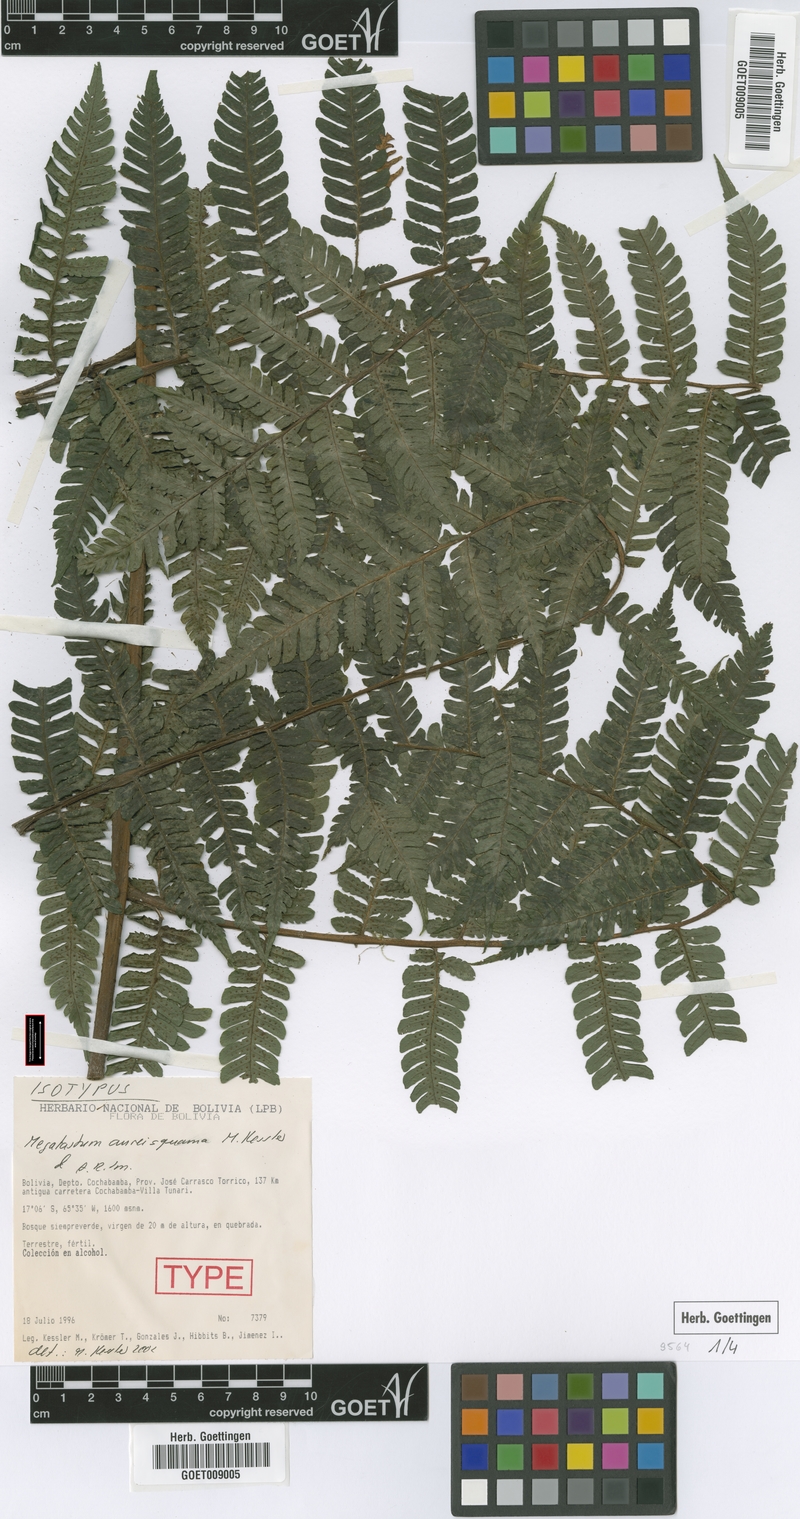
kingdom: Plantae
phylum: Tracheophyta
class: Polypodiopsida
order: Polypodiales
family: Dryopteridaceae
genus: Megalastrum
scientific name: Megalastrum aureisquama
